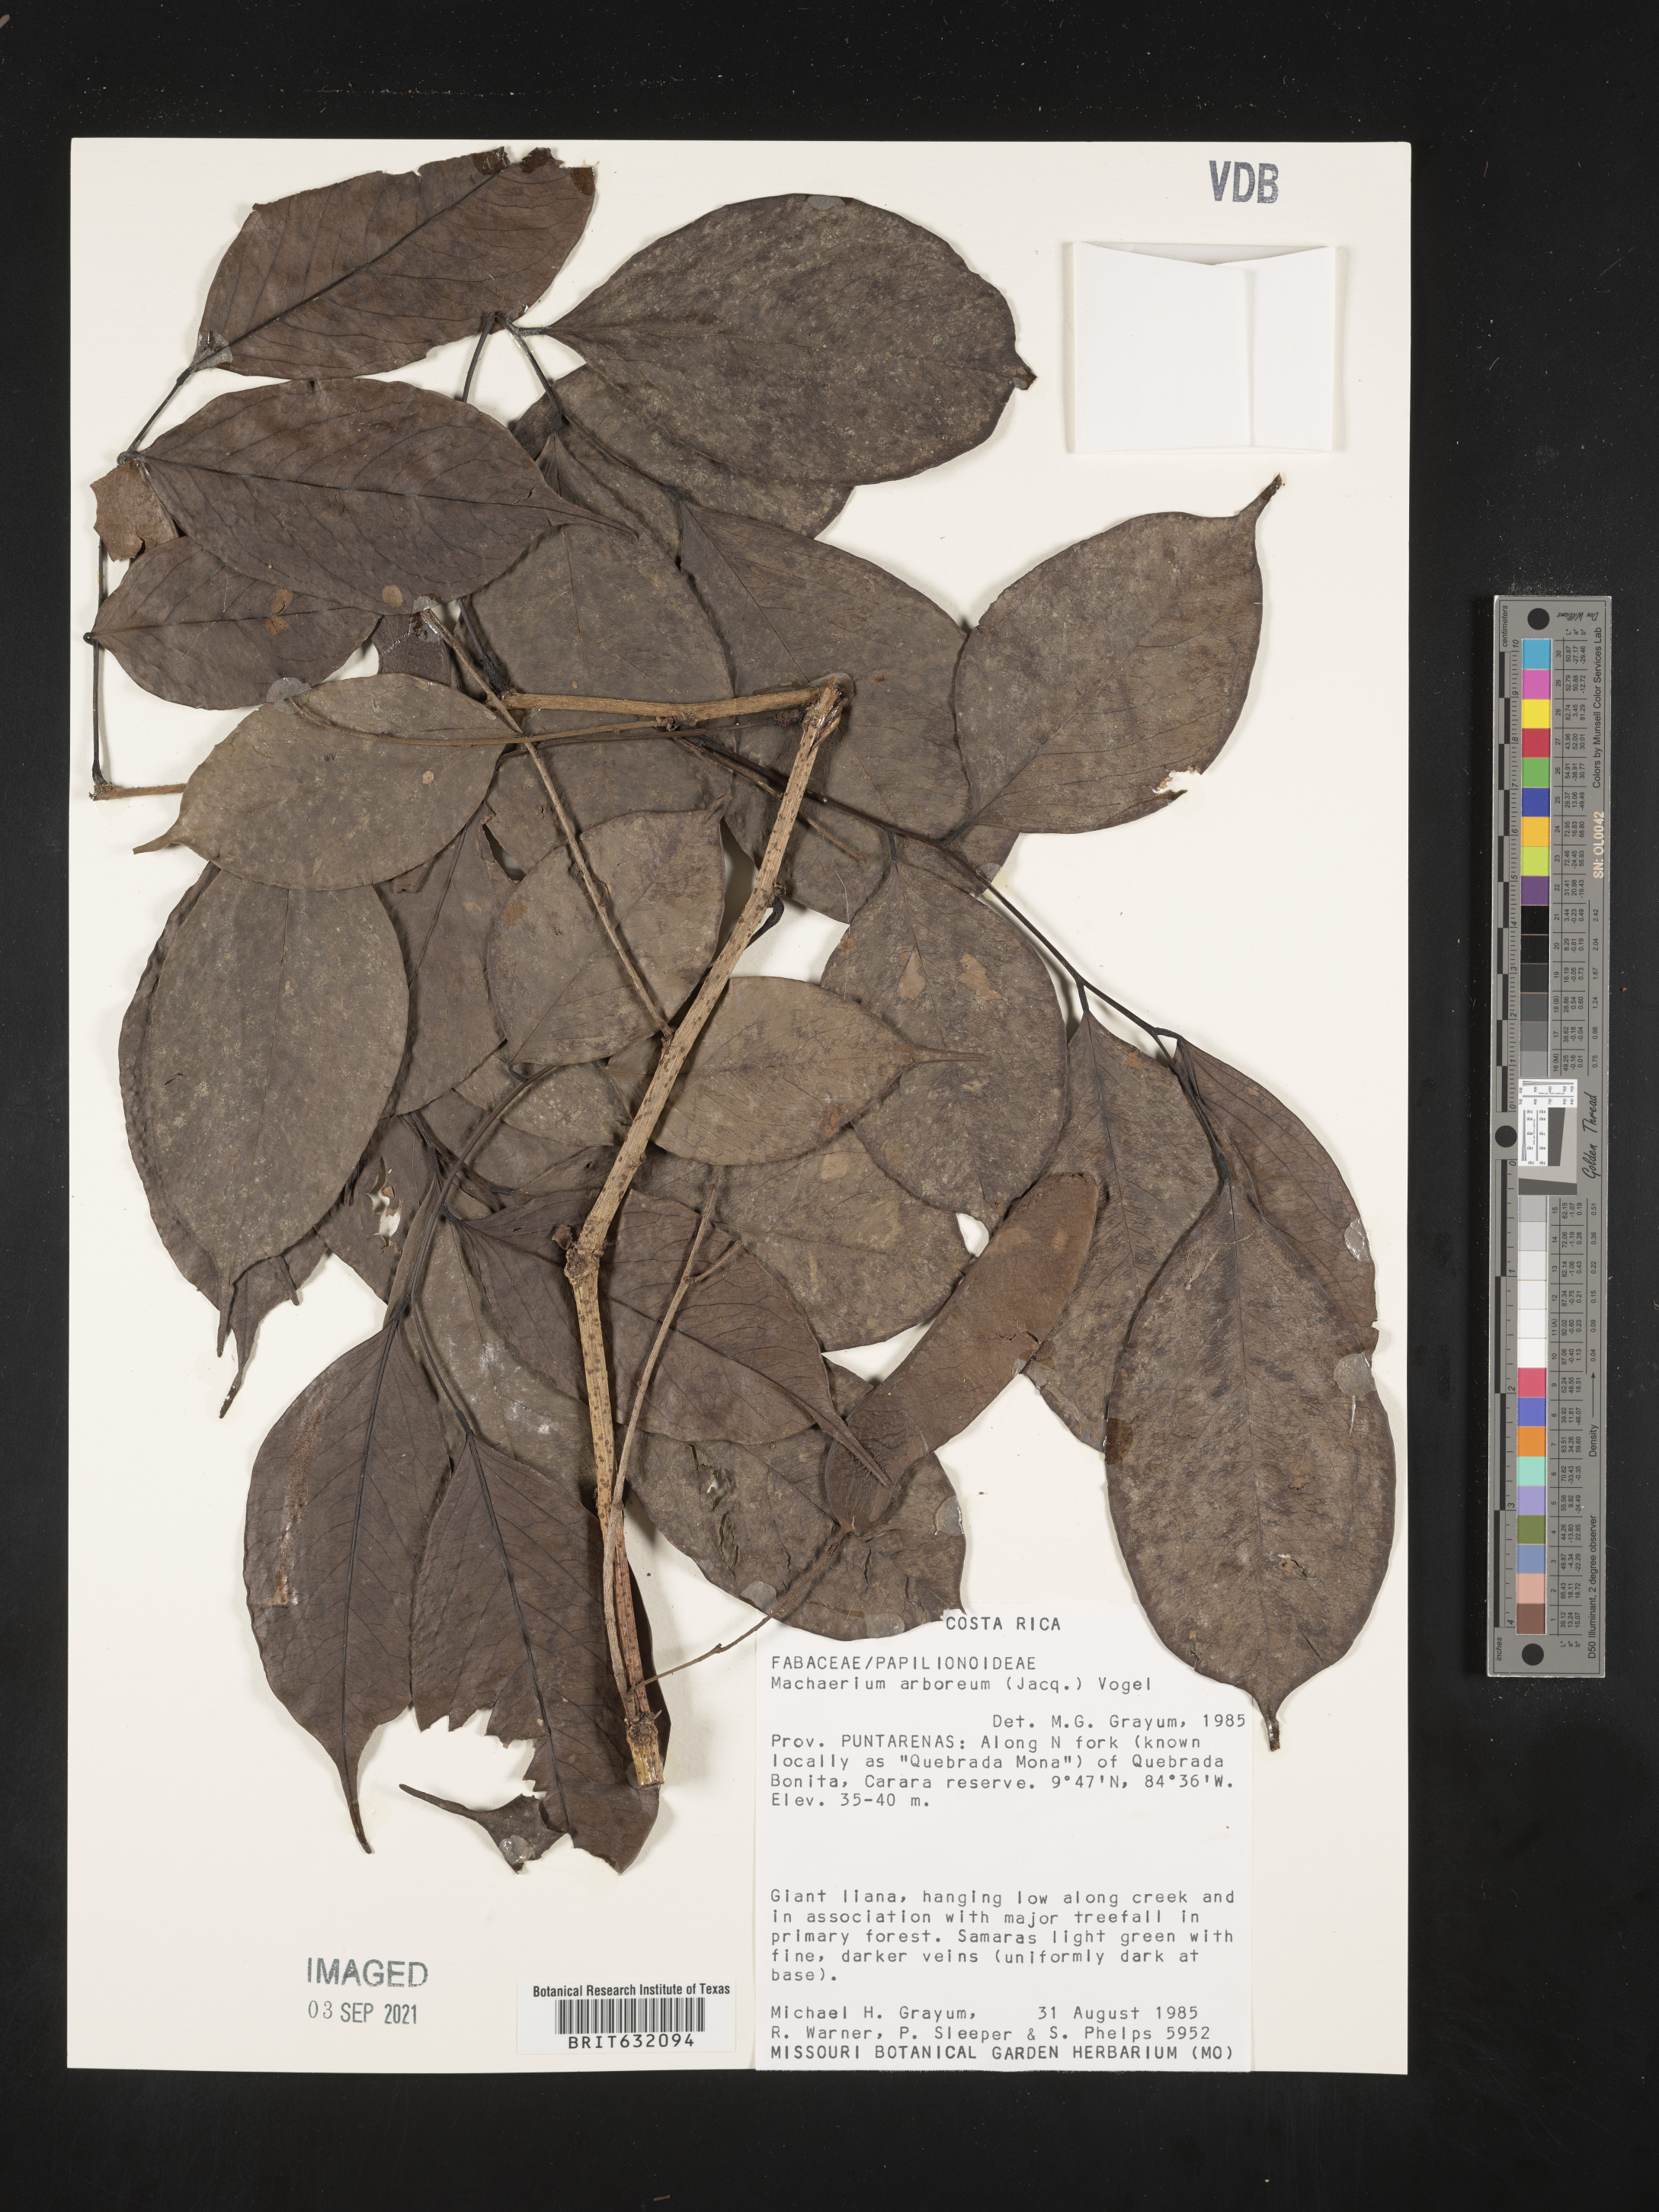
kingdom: Plantae
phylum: Tracheophyta
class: Magnoliopsida
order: Fabales
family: Fabaceae
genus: Machaerium
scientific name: Machaerium
